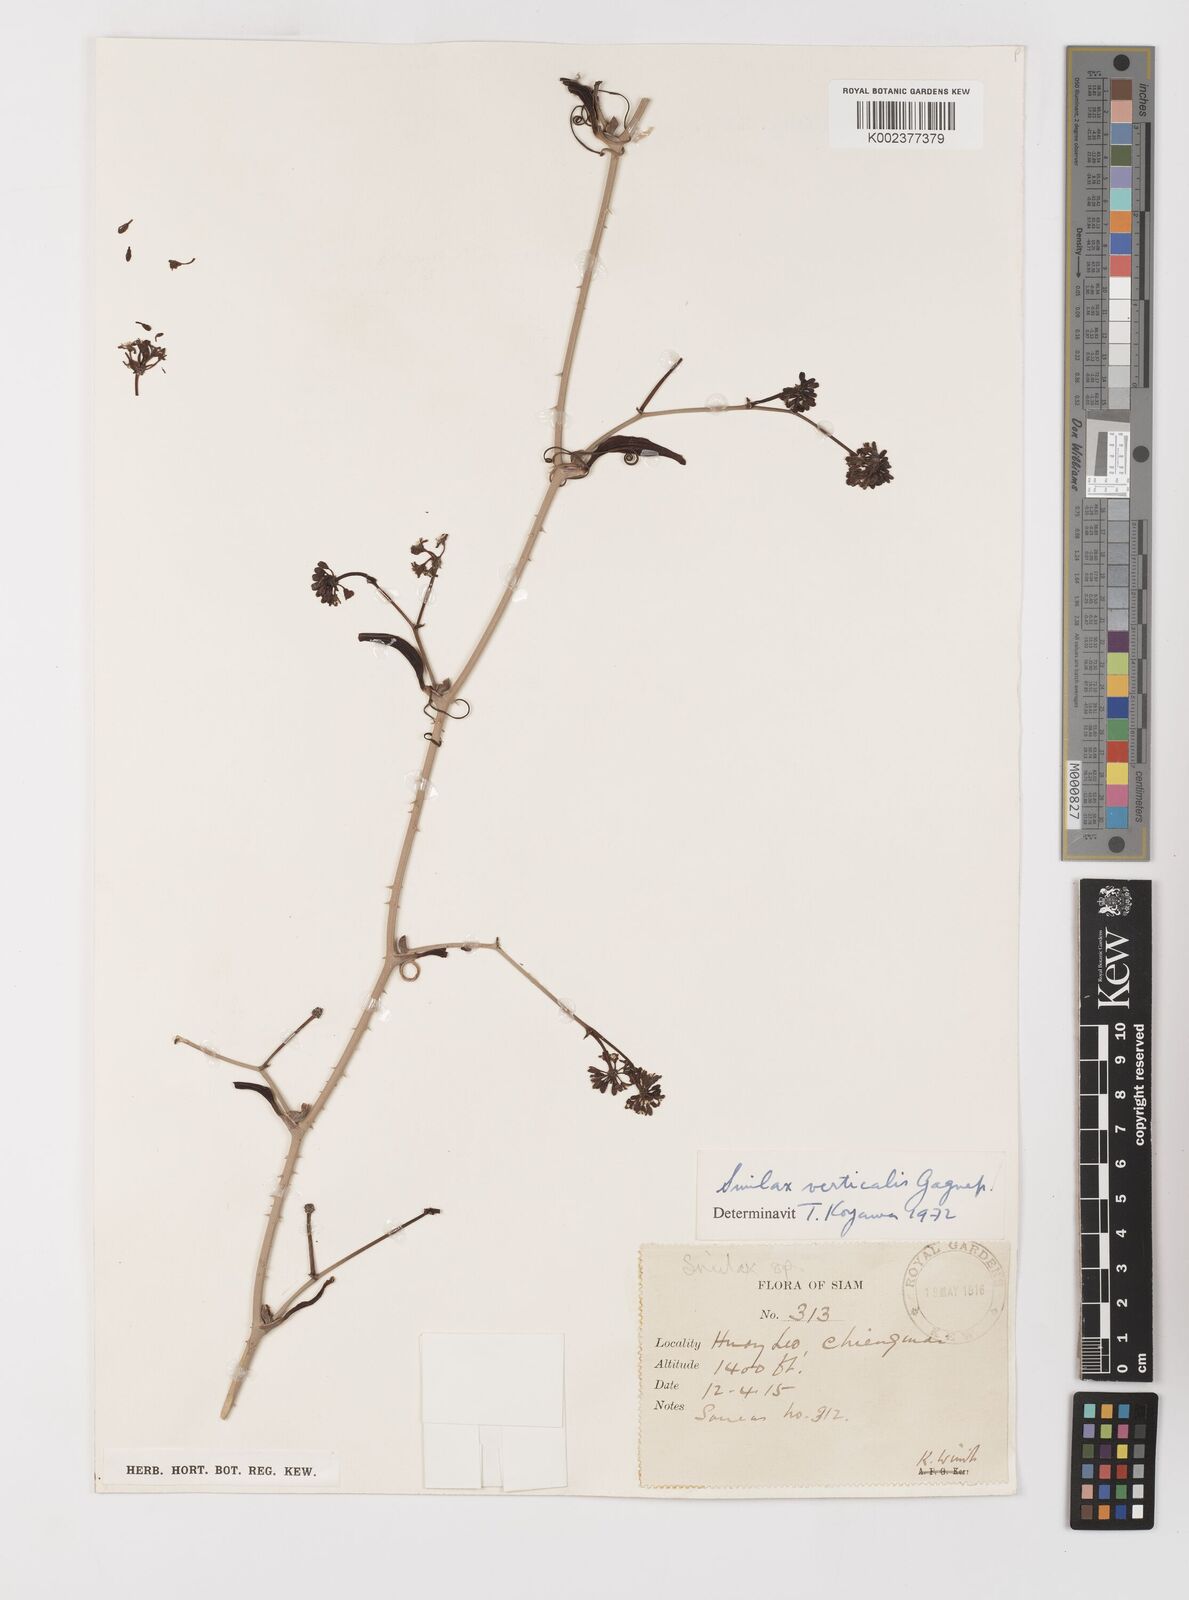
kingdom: Plantae
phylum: Tracheophyta
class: Liliopsida
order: Liliales
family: Smilacaceae
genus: Smilax
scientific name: Smilax verticalis
